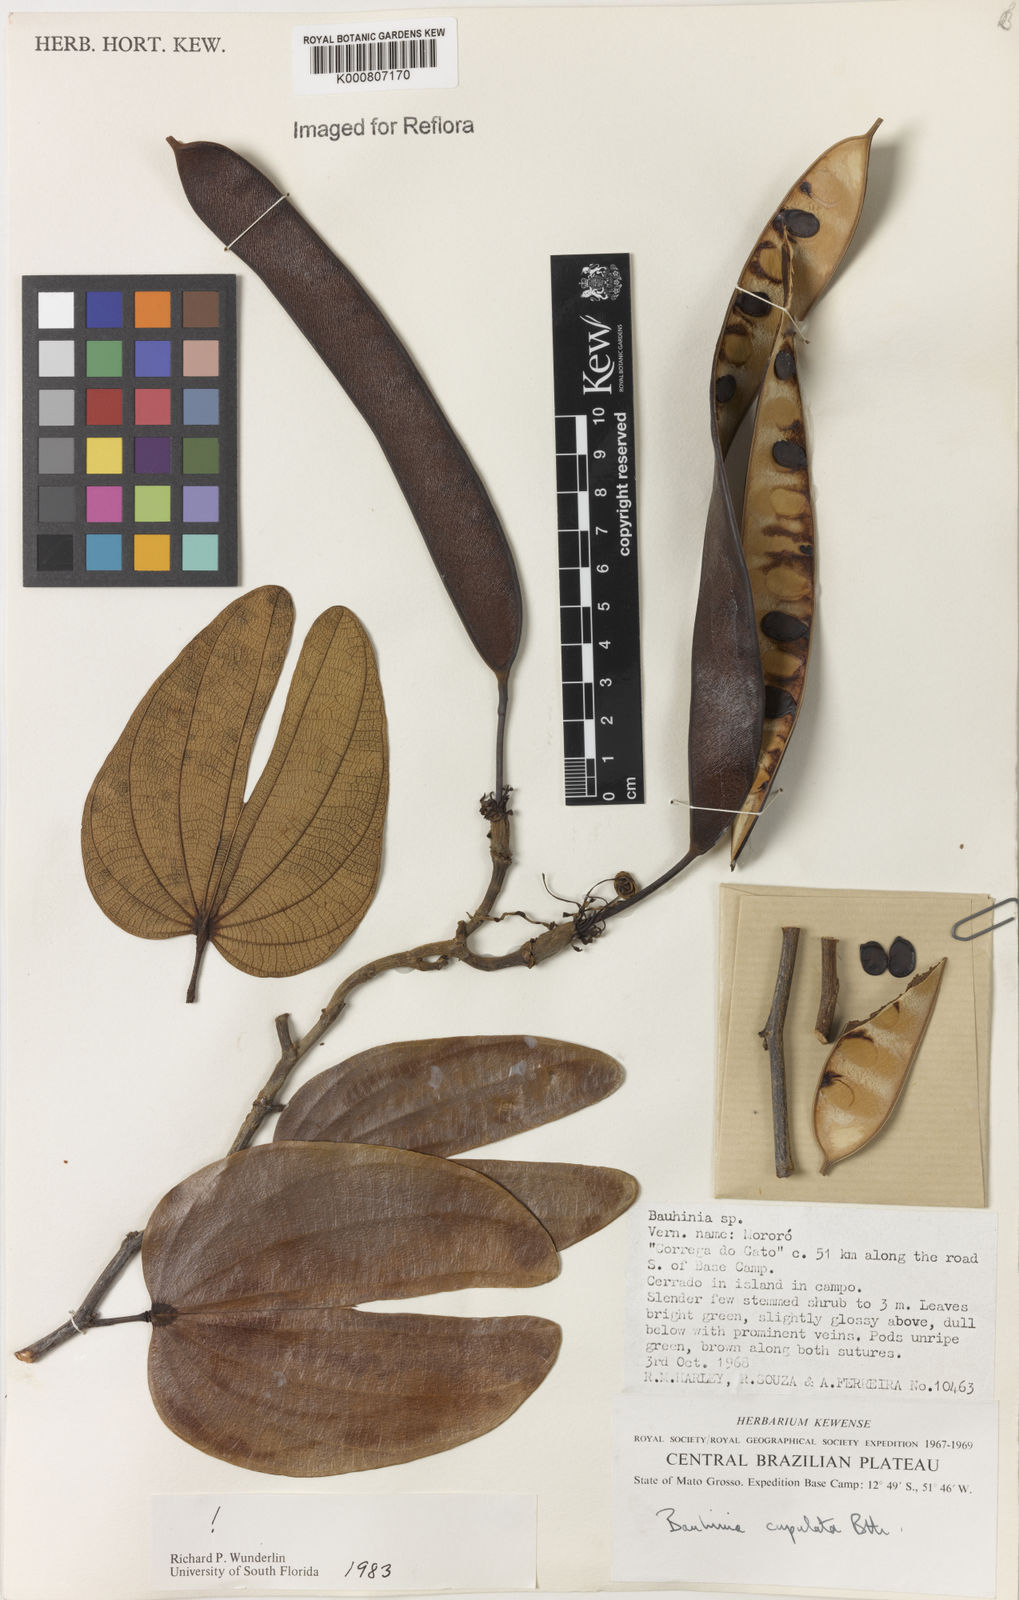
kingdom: Plantae
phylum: Tracheophyta
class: Magnoliopsida
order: Fabales
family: Fabaceae
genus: Bauhinia
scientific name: Bauhinia cupulata
